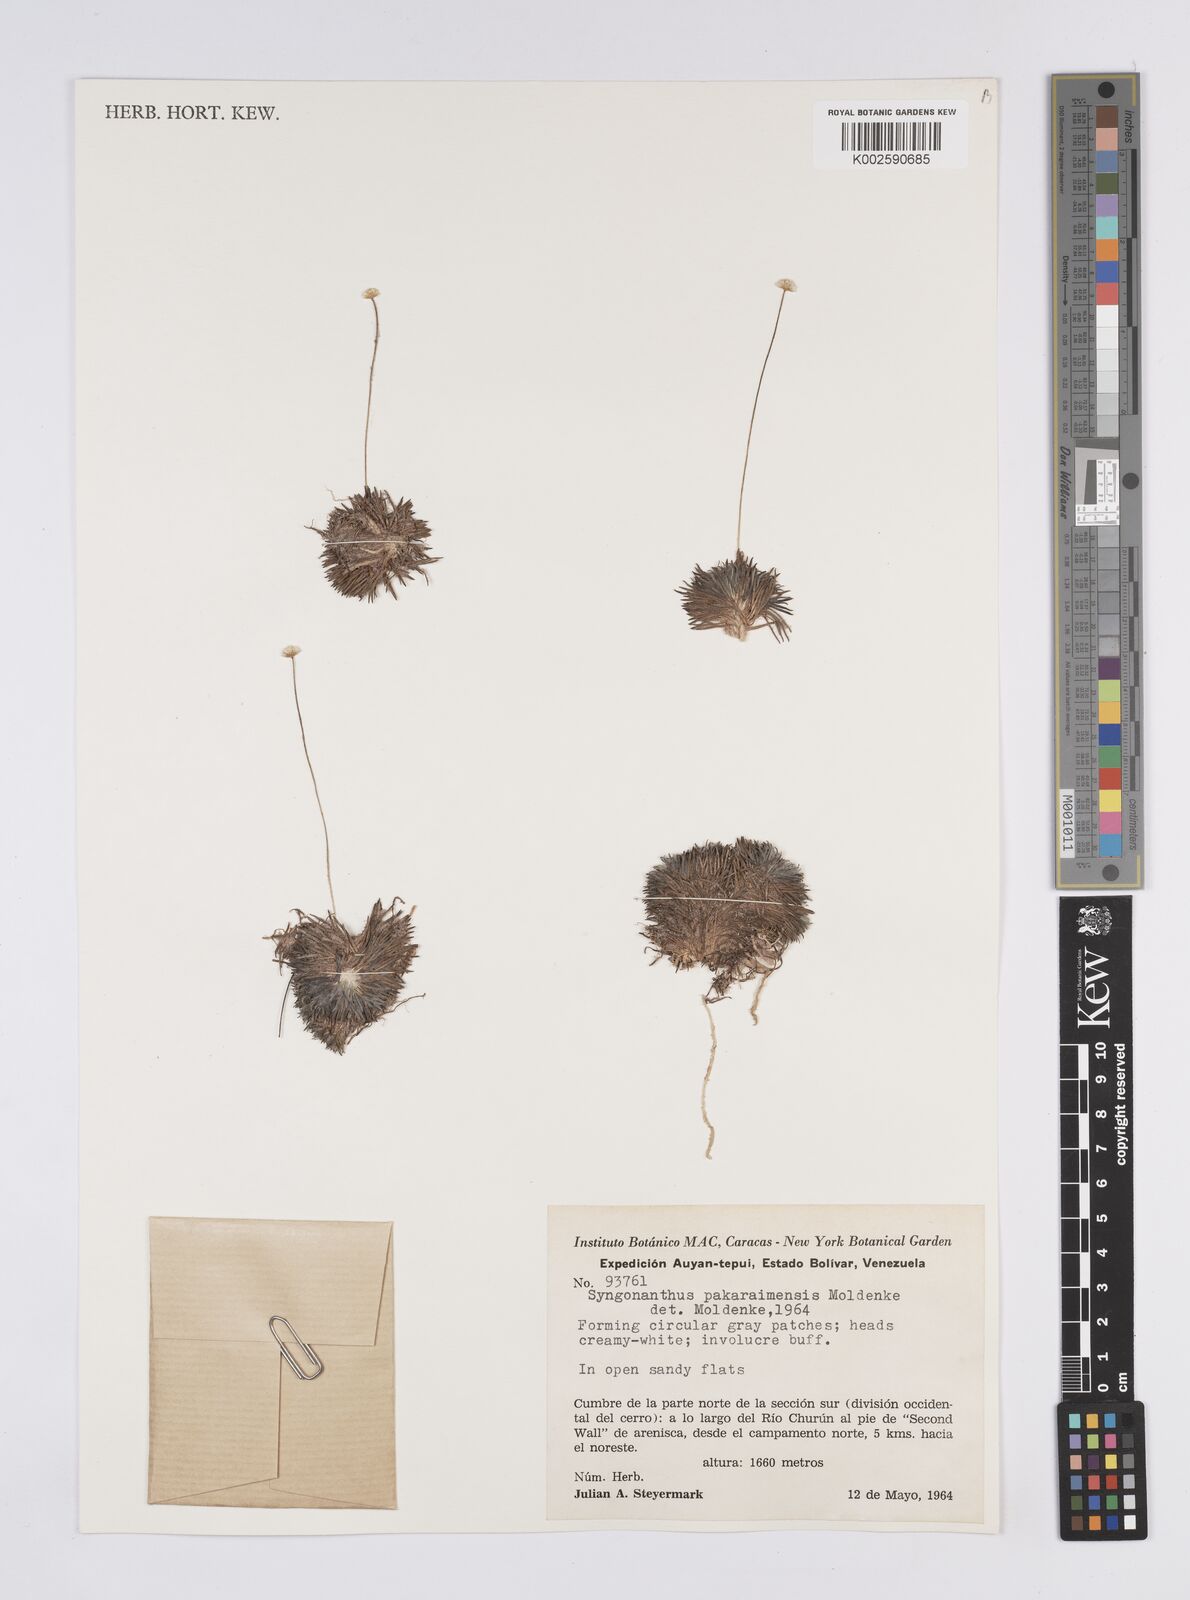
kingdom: Plantae
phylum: Tracheophyta
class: Liliopsida
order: Poales
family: Eriocaulaceae
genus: Syngonanthus
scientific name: Syngonanthus pakaraimensis
